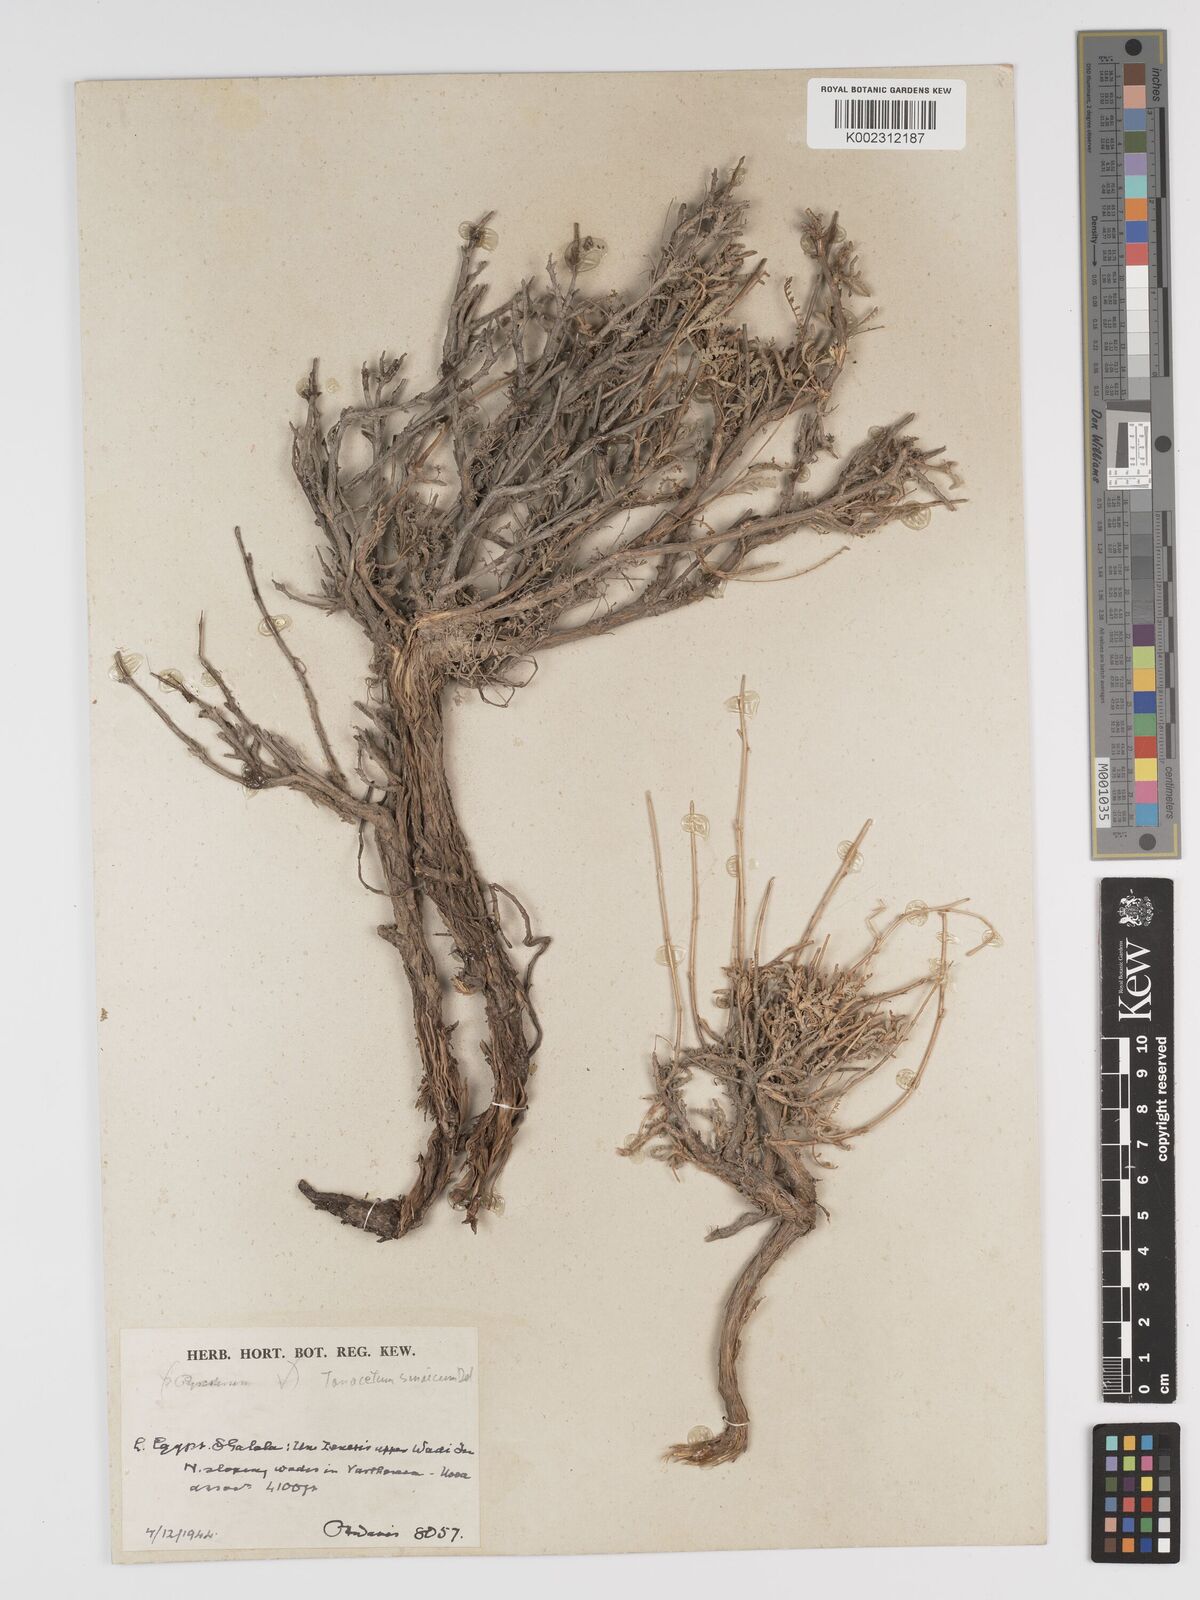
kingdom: Plantae
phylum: Tracheophyta
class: Magnoliopsida
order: Asterales
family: Asteraceae
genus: Tanacetum
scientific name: Tanacetum sinaicum
